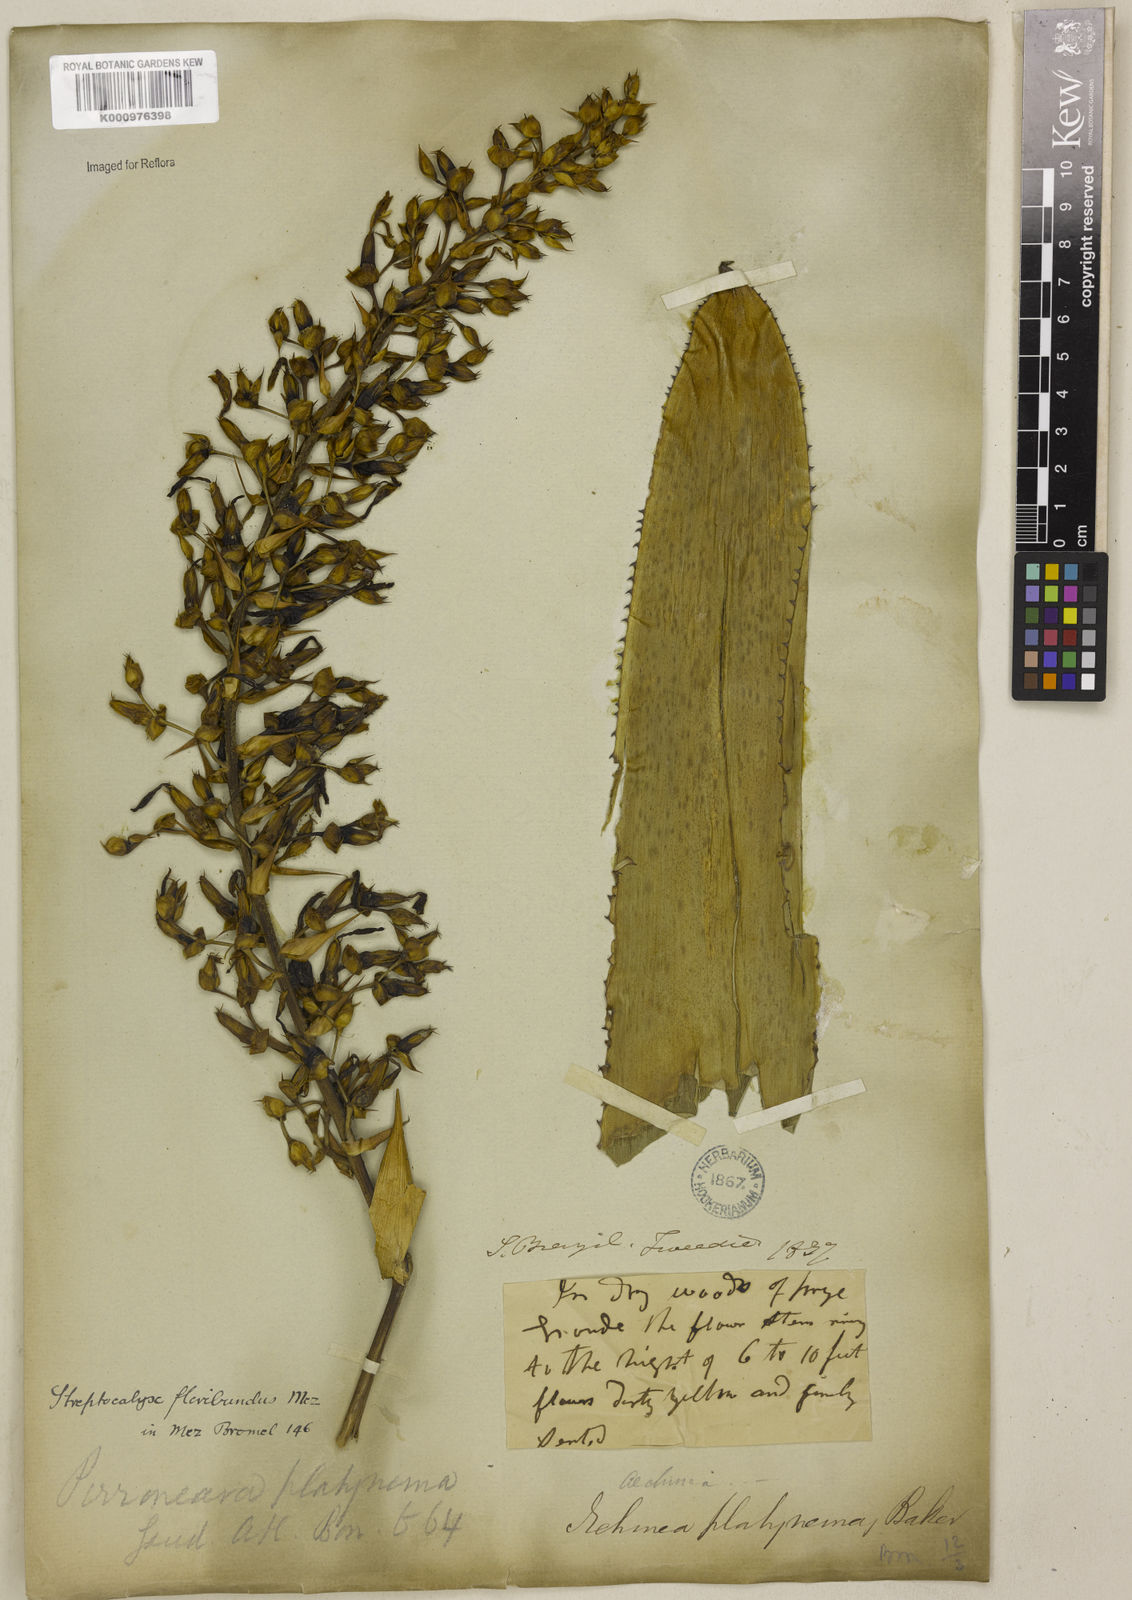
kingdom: Plantae
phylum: Tracheophyta
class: Liliopsida
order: Poales
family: Bromeliaceae
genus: Aechmea
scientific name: Aechmea floribunda
